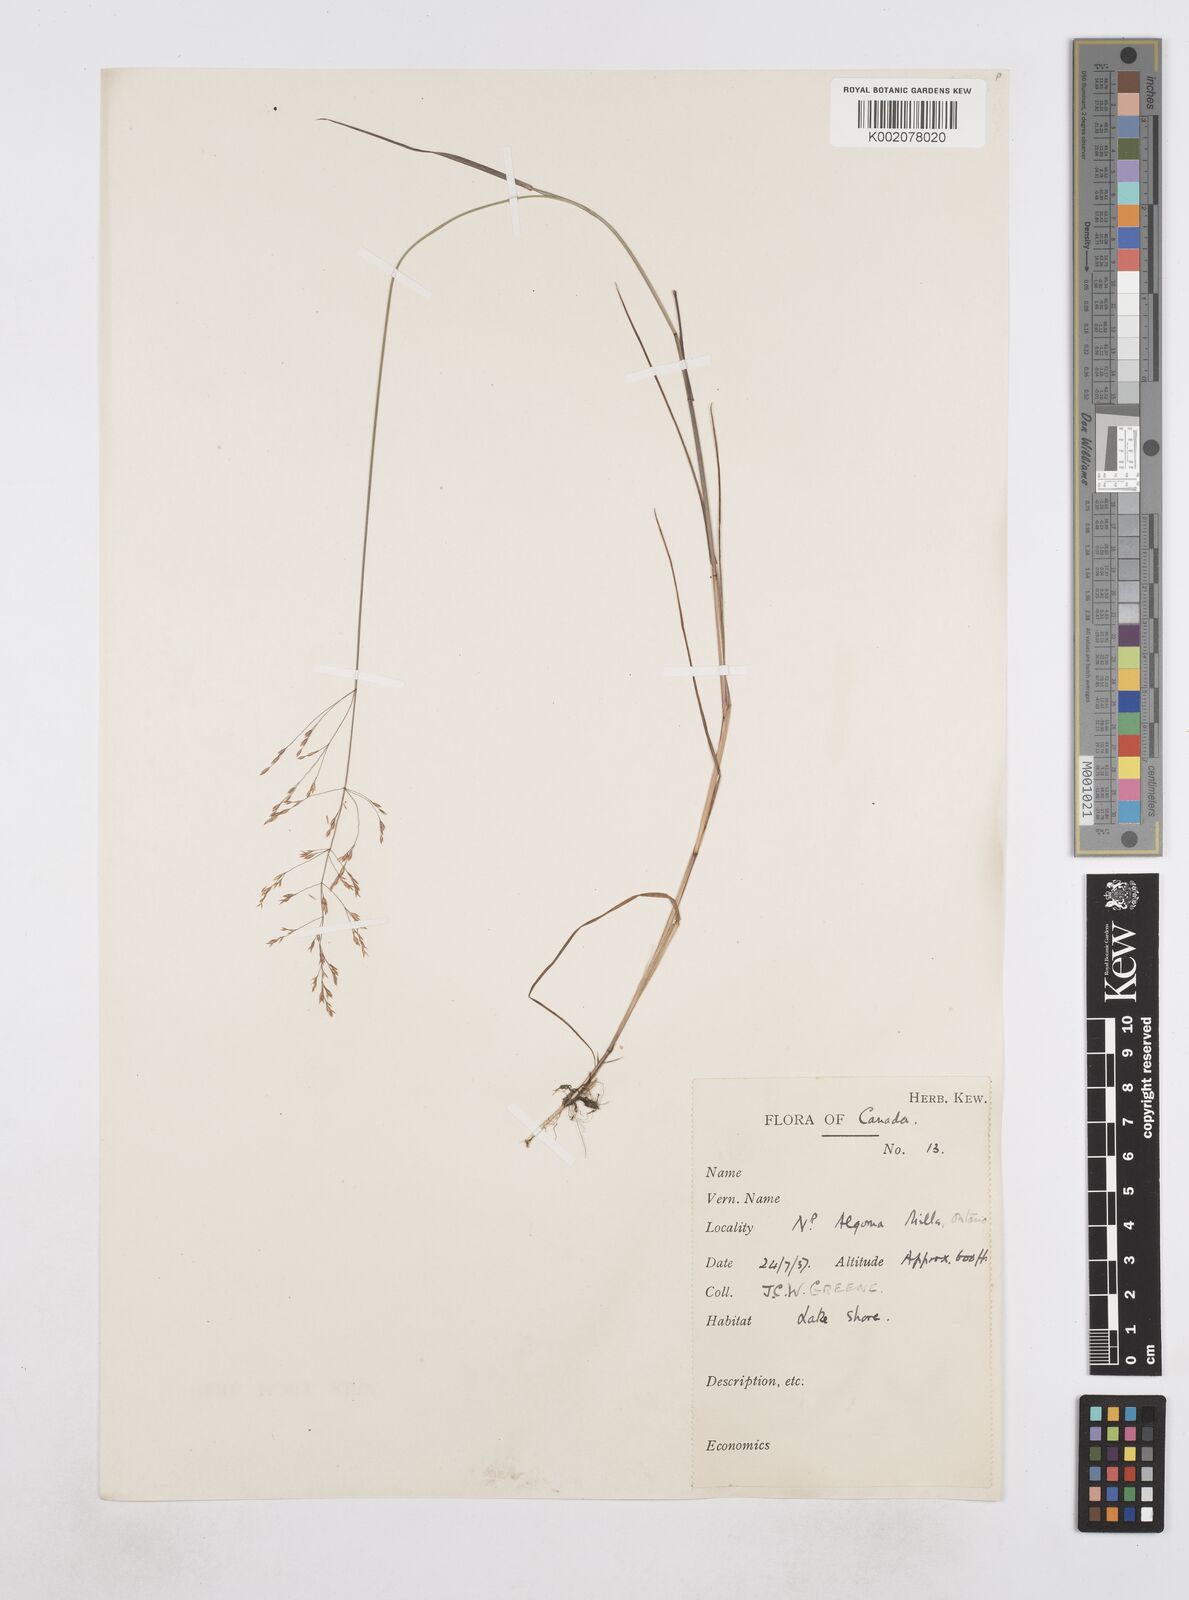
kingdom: Plantae
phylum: Tracheophyta
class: Liliopsida
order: Poales
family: Poaceae
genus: Poa
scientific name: Poa
